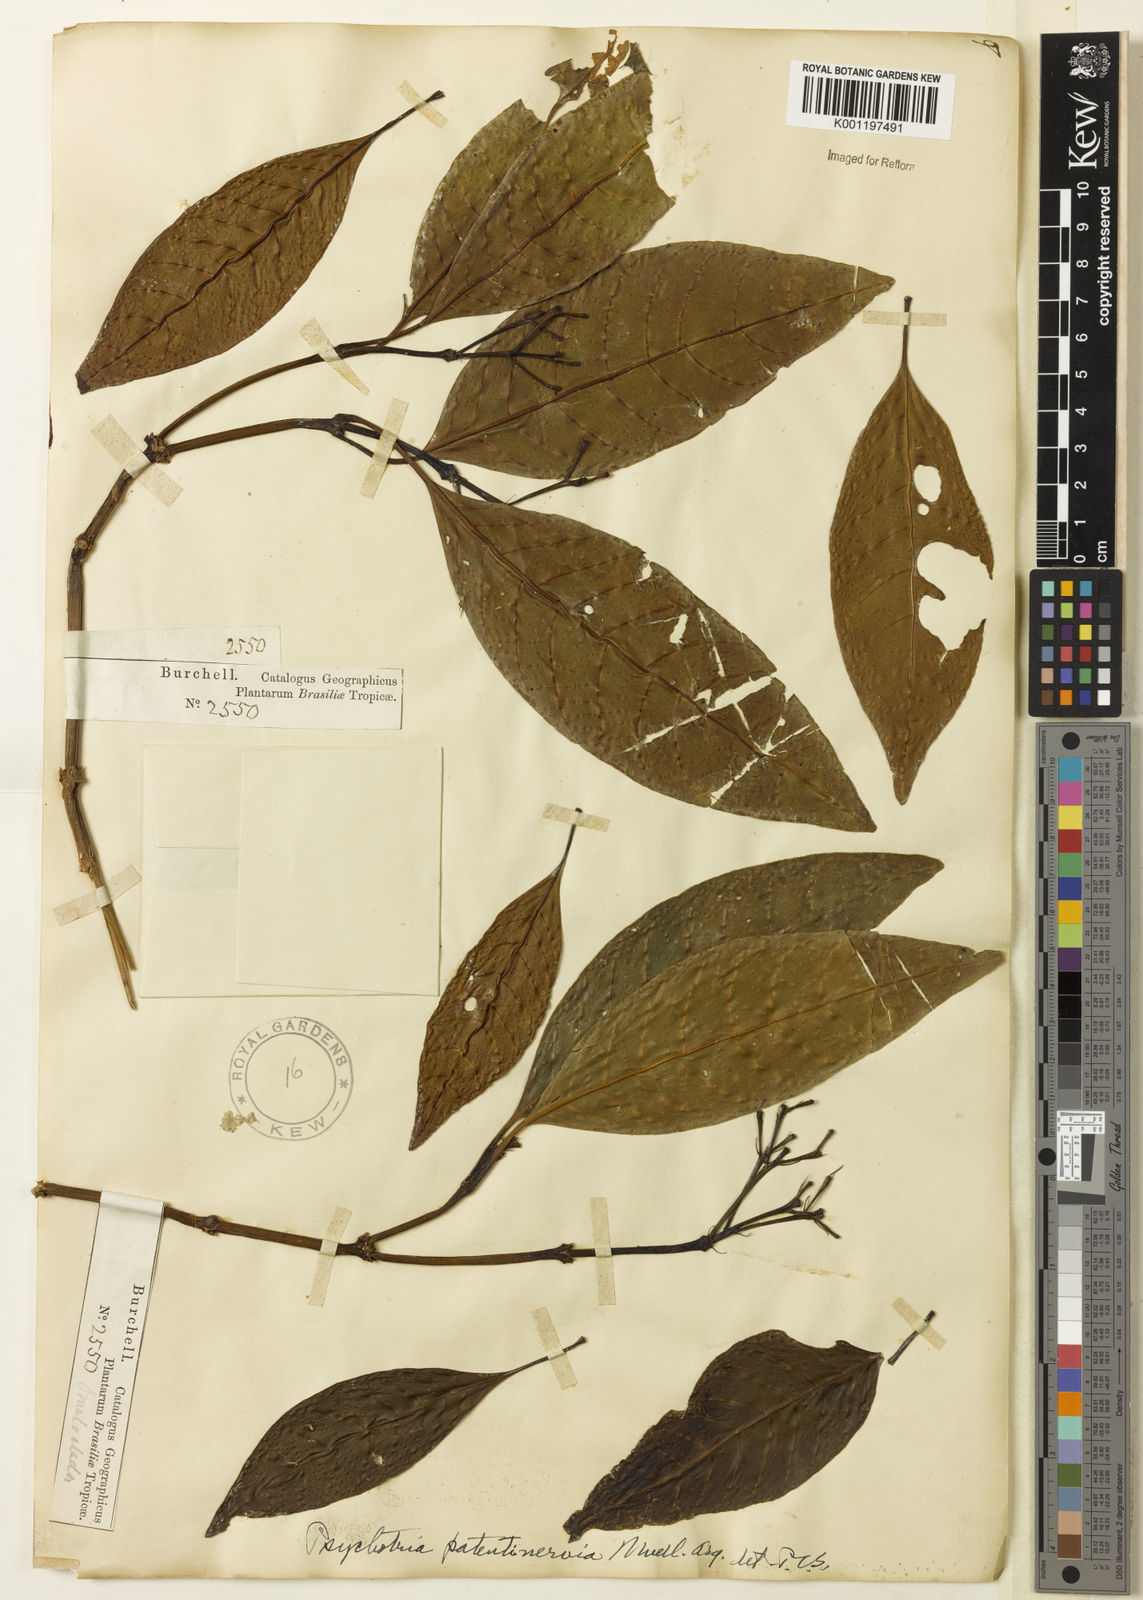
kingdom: Plantae
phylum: Tracheophyta
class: Magnoliopsida
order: Gentianales
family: Rubiaceae
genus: Psychotria
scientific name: Psychotria
